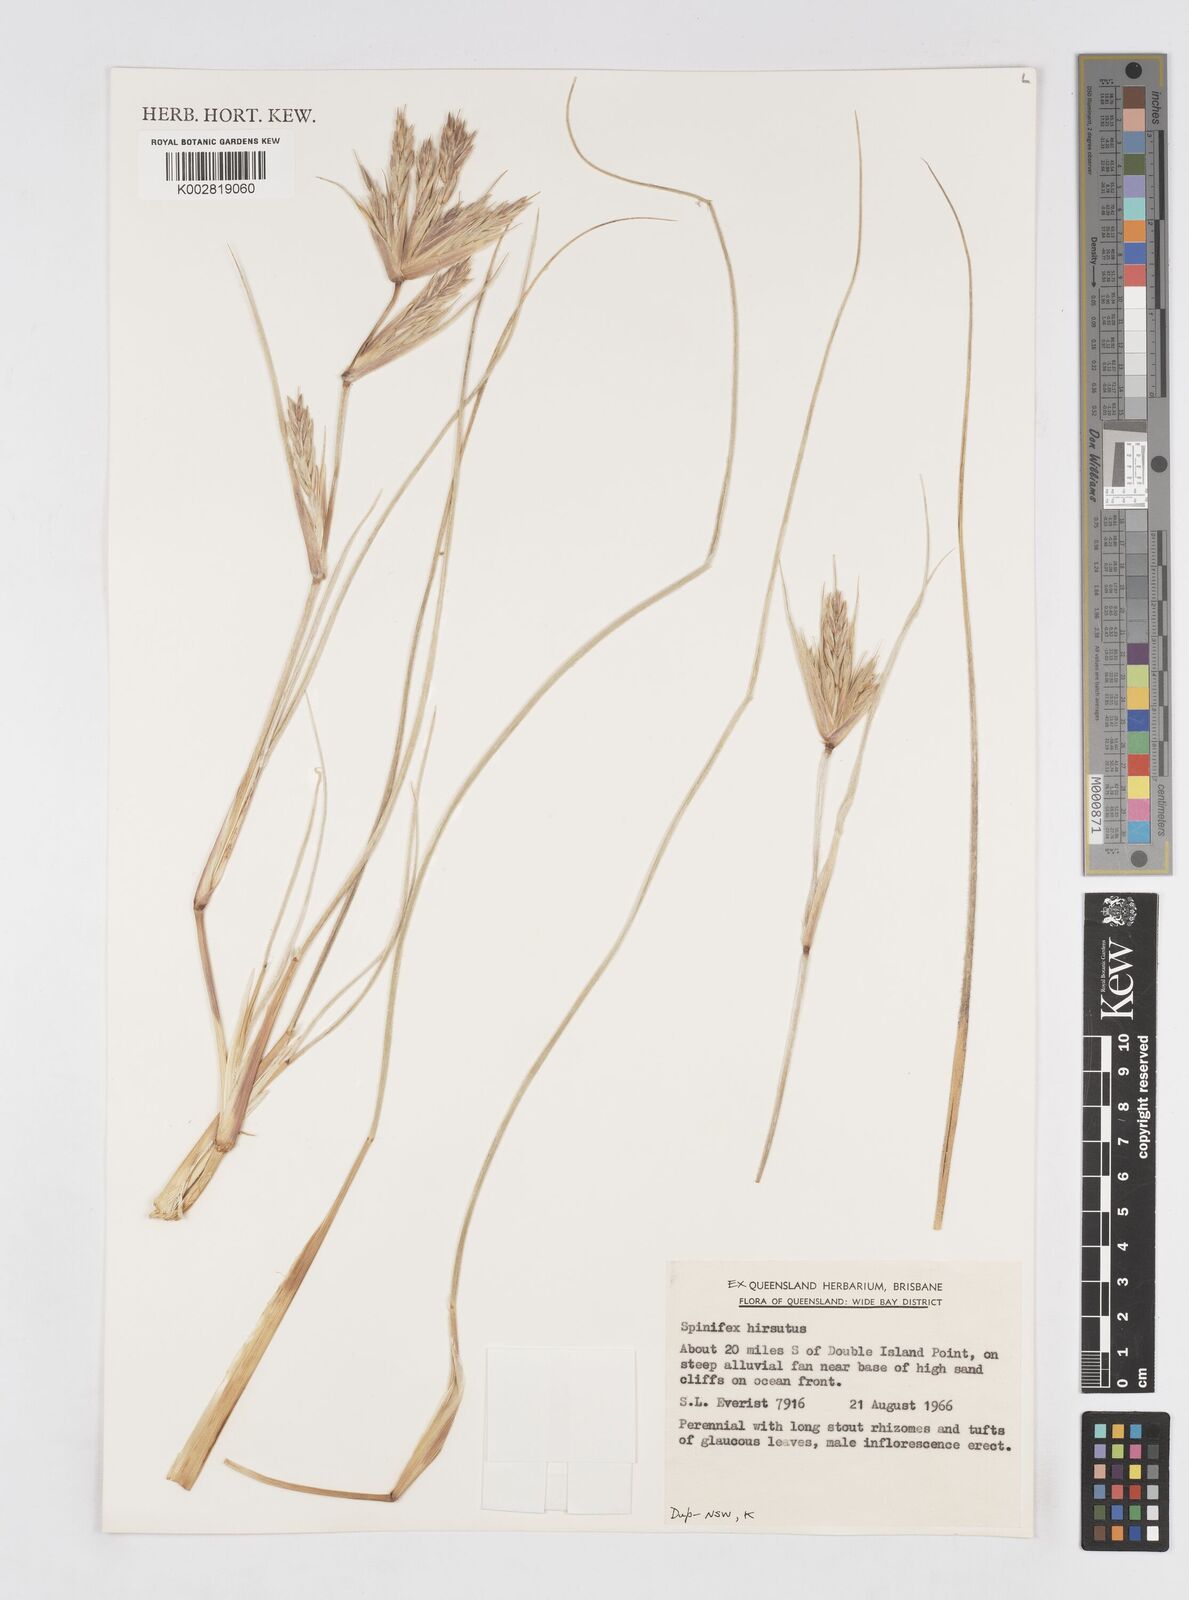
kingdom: Plantae
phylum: Tracheophyta
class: Liliopsida
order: Poales
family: Poaceae
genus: Spinifex
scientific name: Spinifex hirsutus
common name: Hairy spinifex
